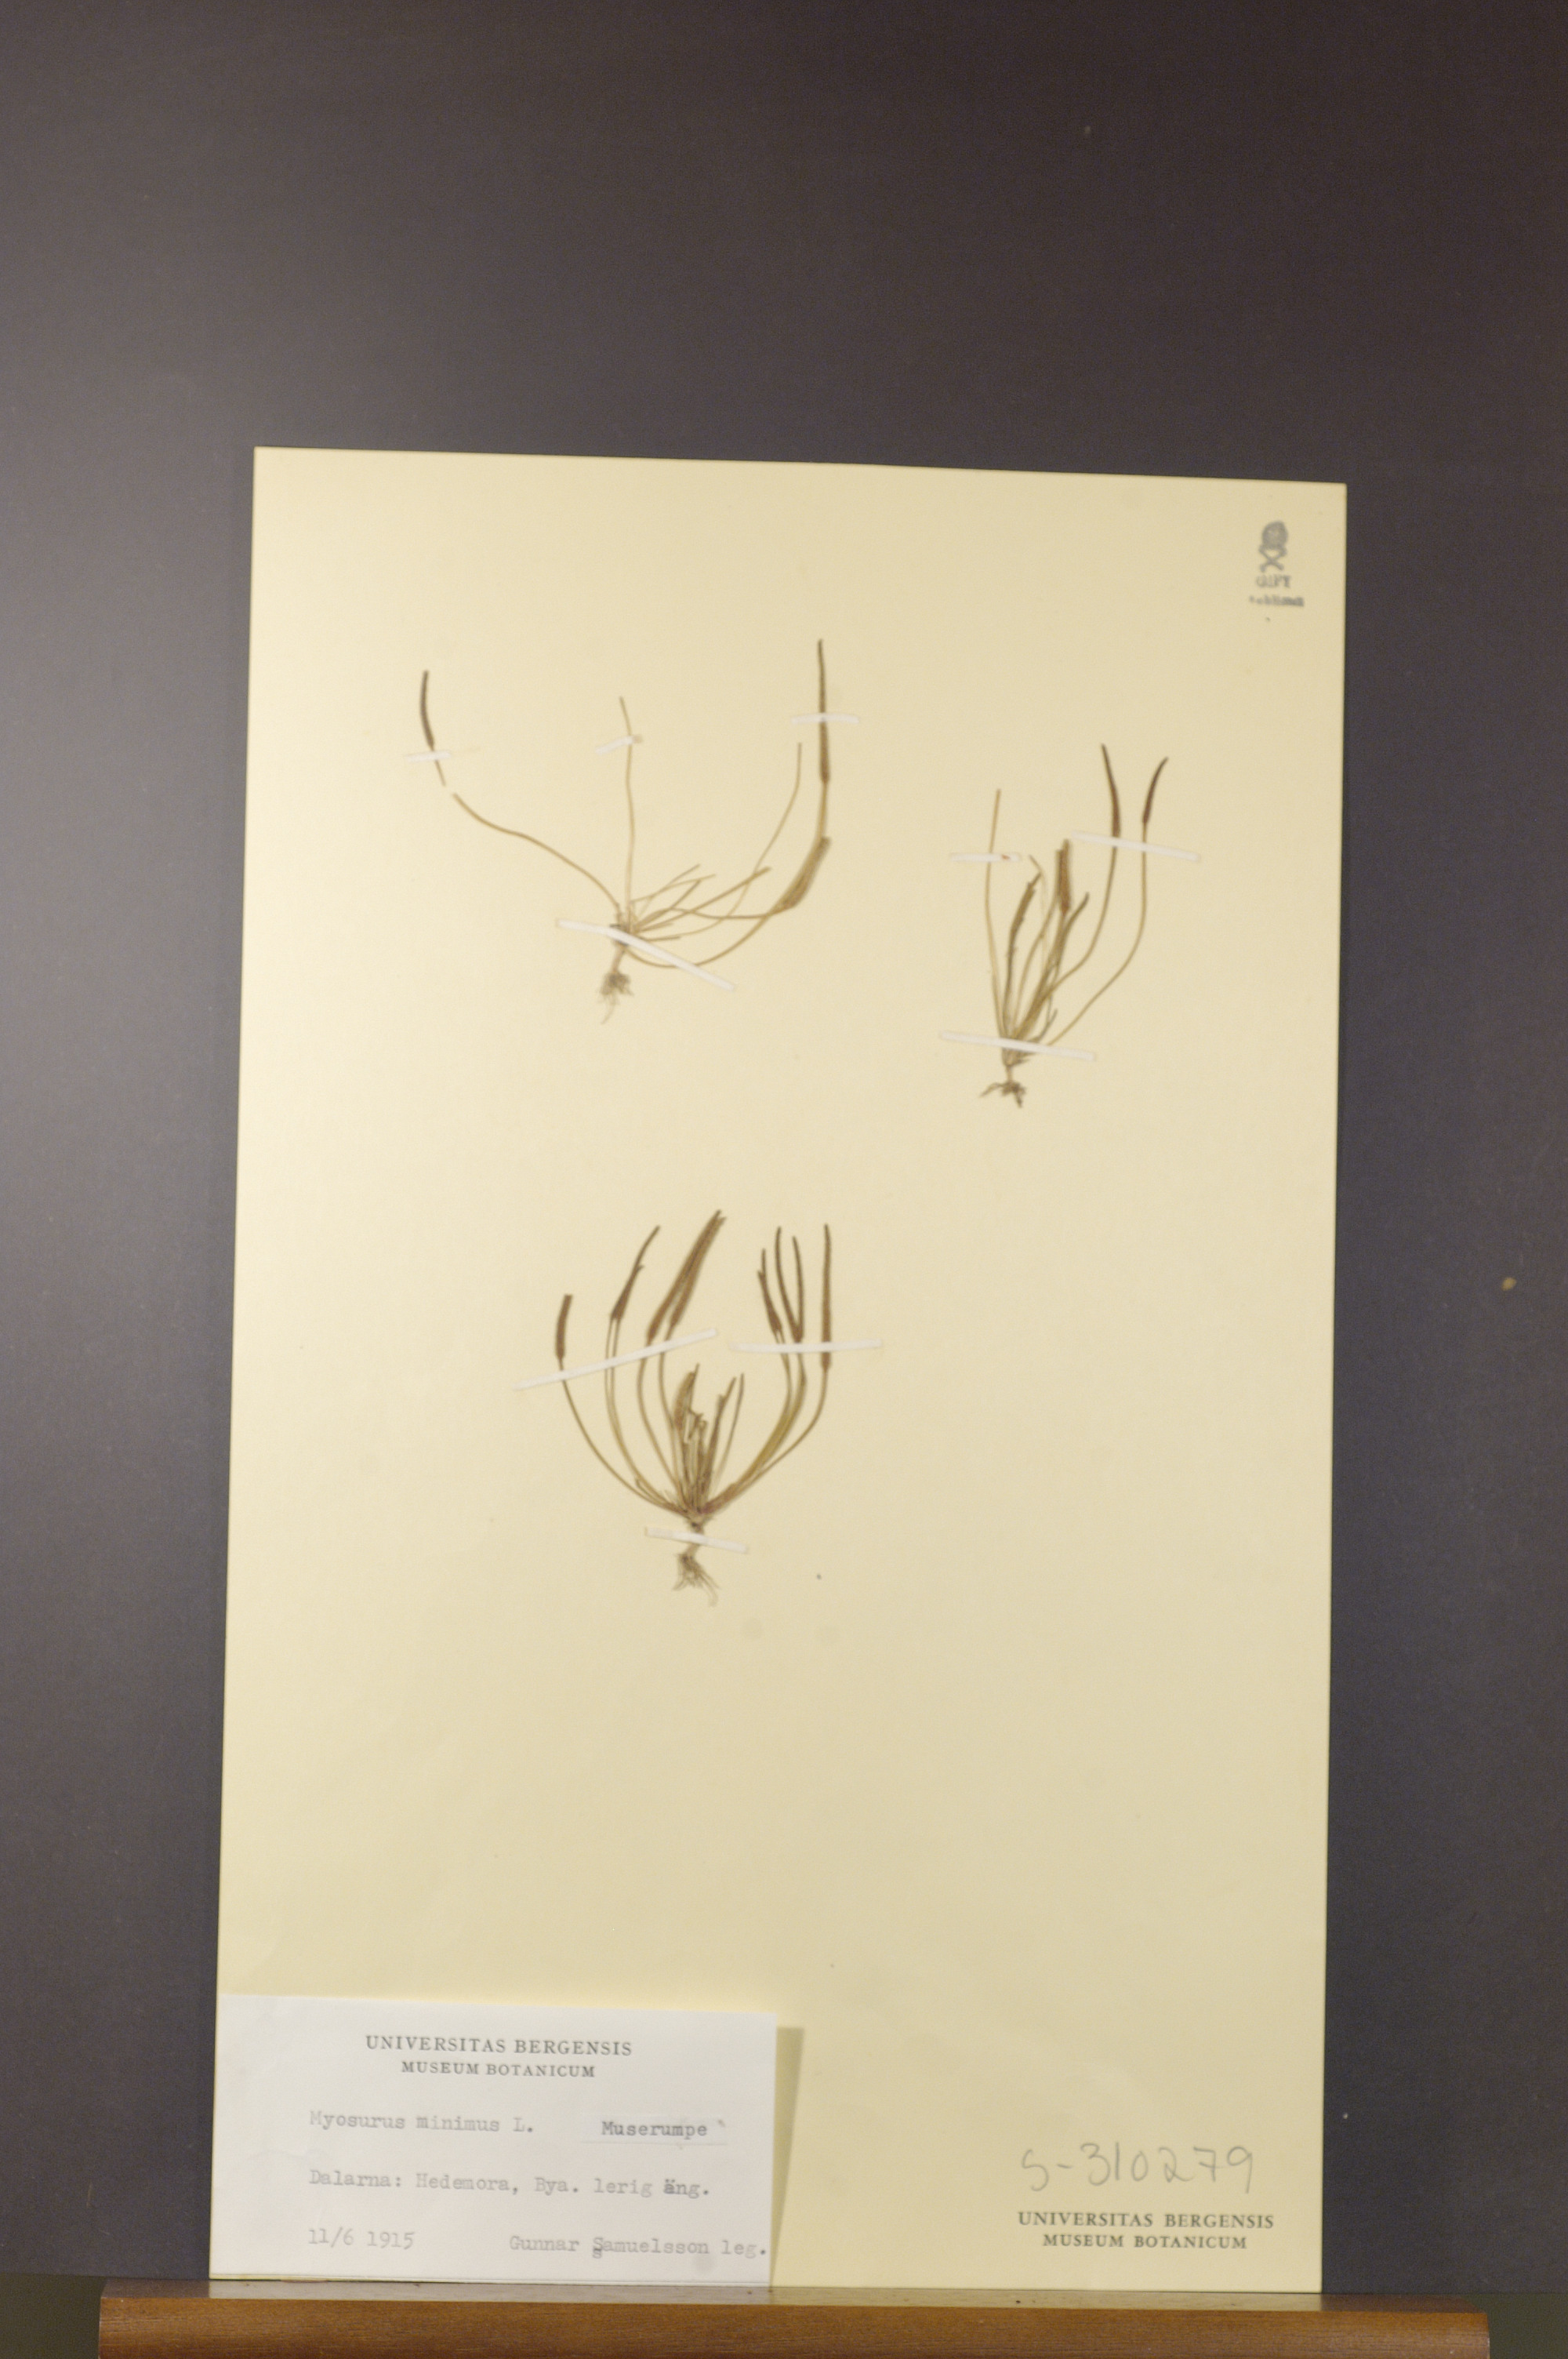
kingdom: Plantae
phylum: Tracheophyta
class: Magnoliopsida
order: Ranunculales
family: Ranunculaceae
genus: Myosurus
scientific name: Myosurus minimus
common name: Mousetail
